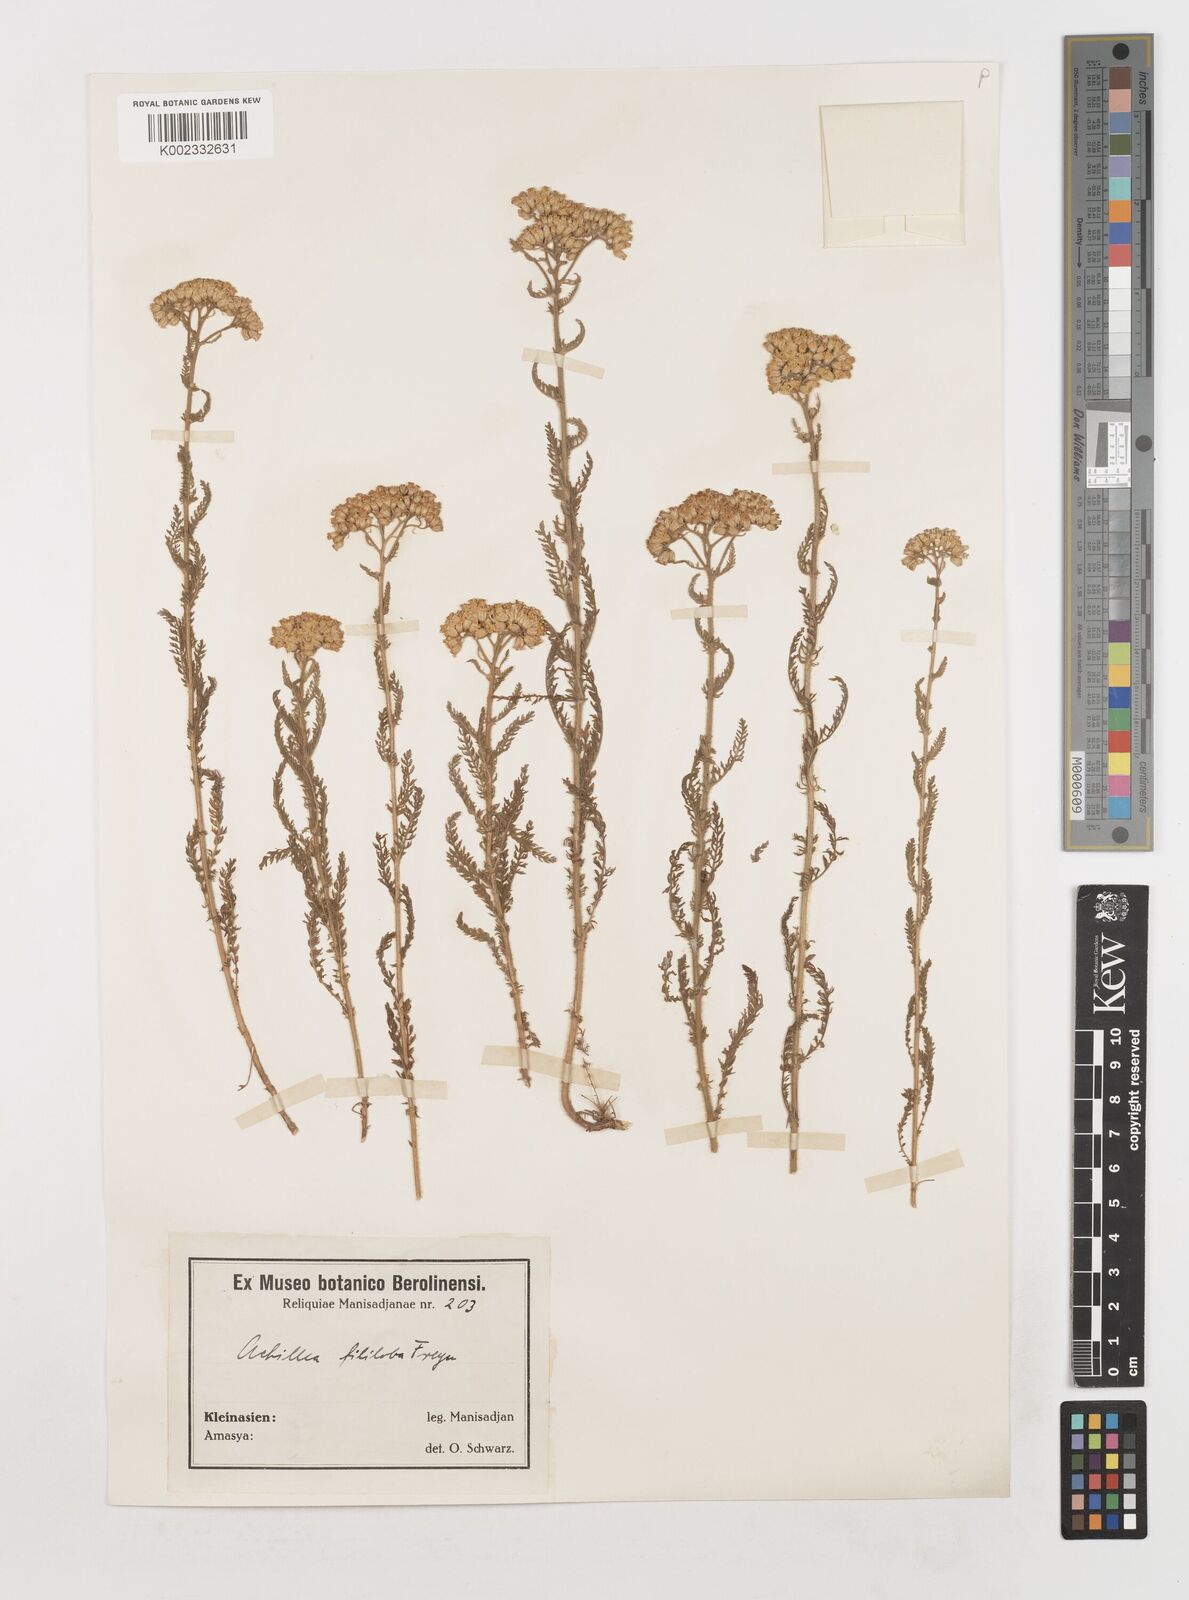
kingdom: Plantae
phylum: Tracheophyta
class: Magnoliopsida
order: Asterales
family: Asteraceae
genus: Achillea
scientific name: Achillea
